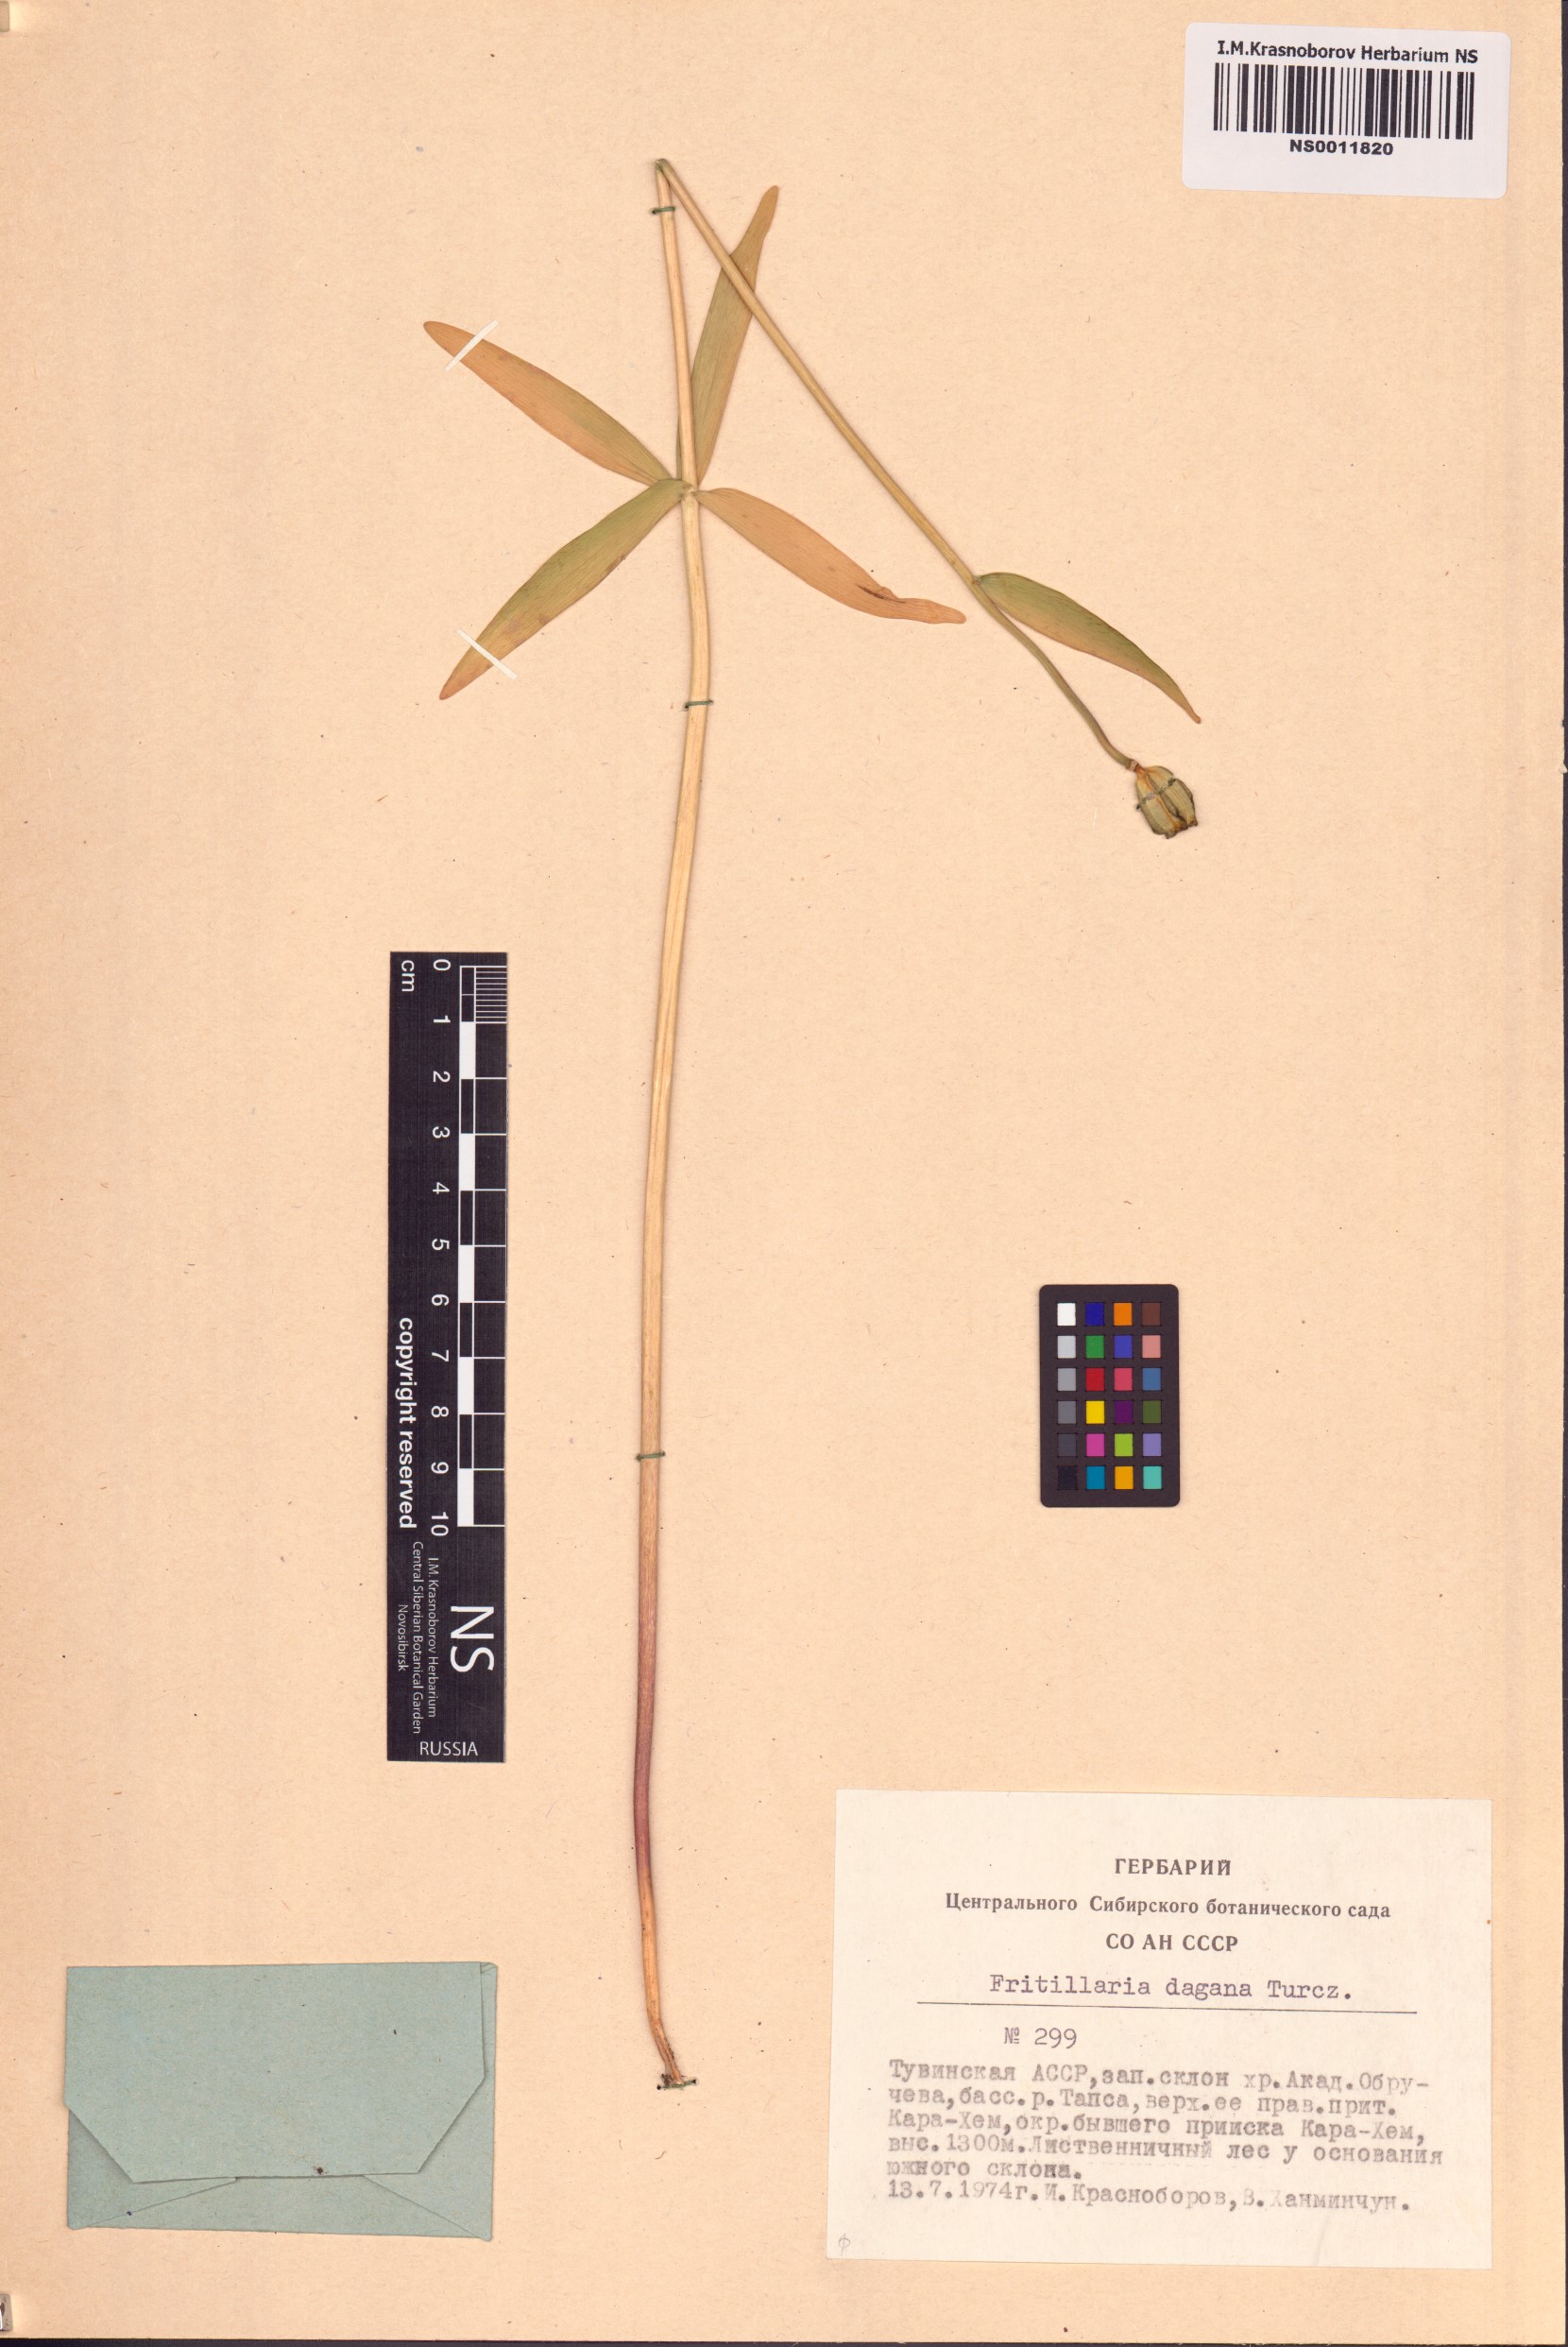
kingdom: Plantae
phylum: Tracheophyta
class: Liliopsida
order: Liliales
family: Liliaceae
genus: Fritillaria
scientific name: Fritillaria dagana
